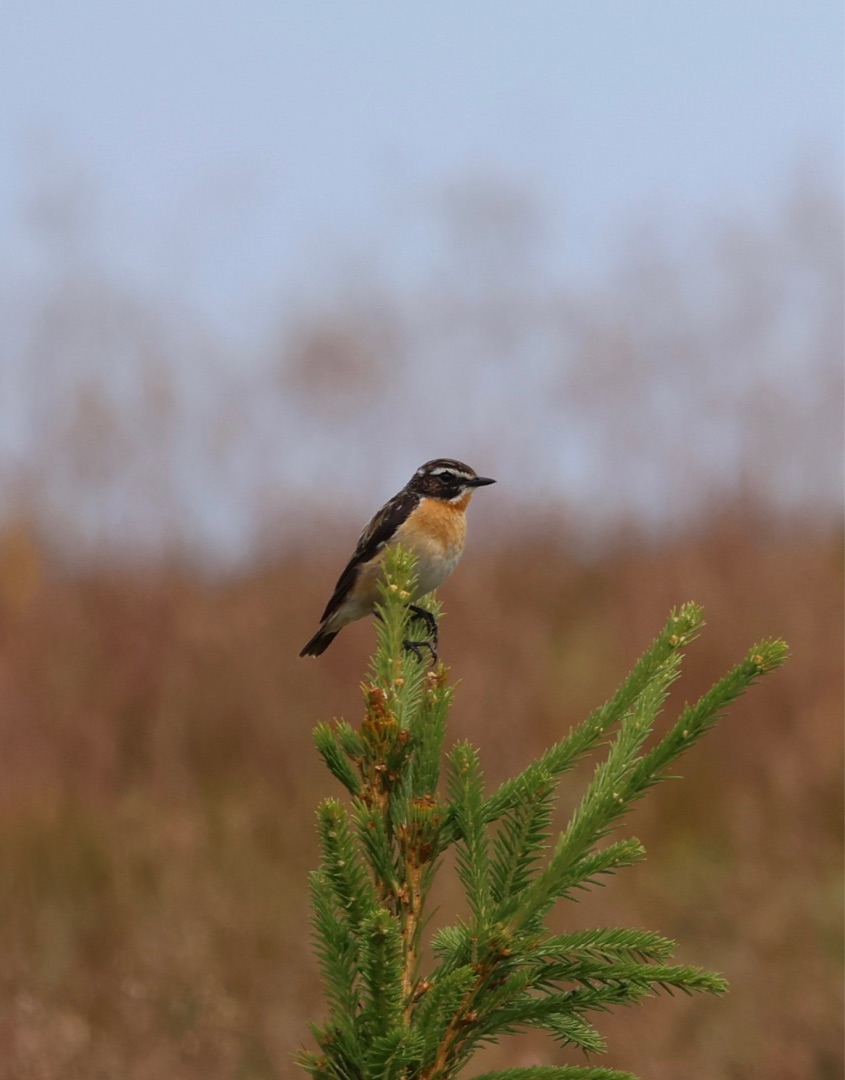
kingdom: Animalia
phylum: Chordata
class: Aves
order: Passeriformes
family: Muscicapidae
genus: Saxicola
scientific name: Saxicola rubetra
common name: Bynkefugl
